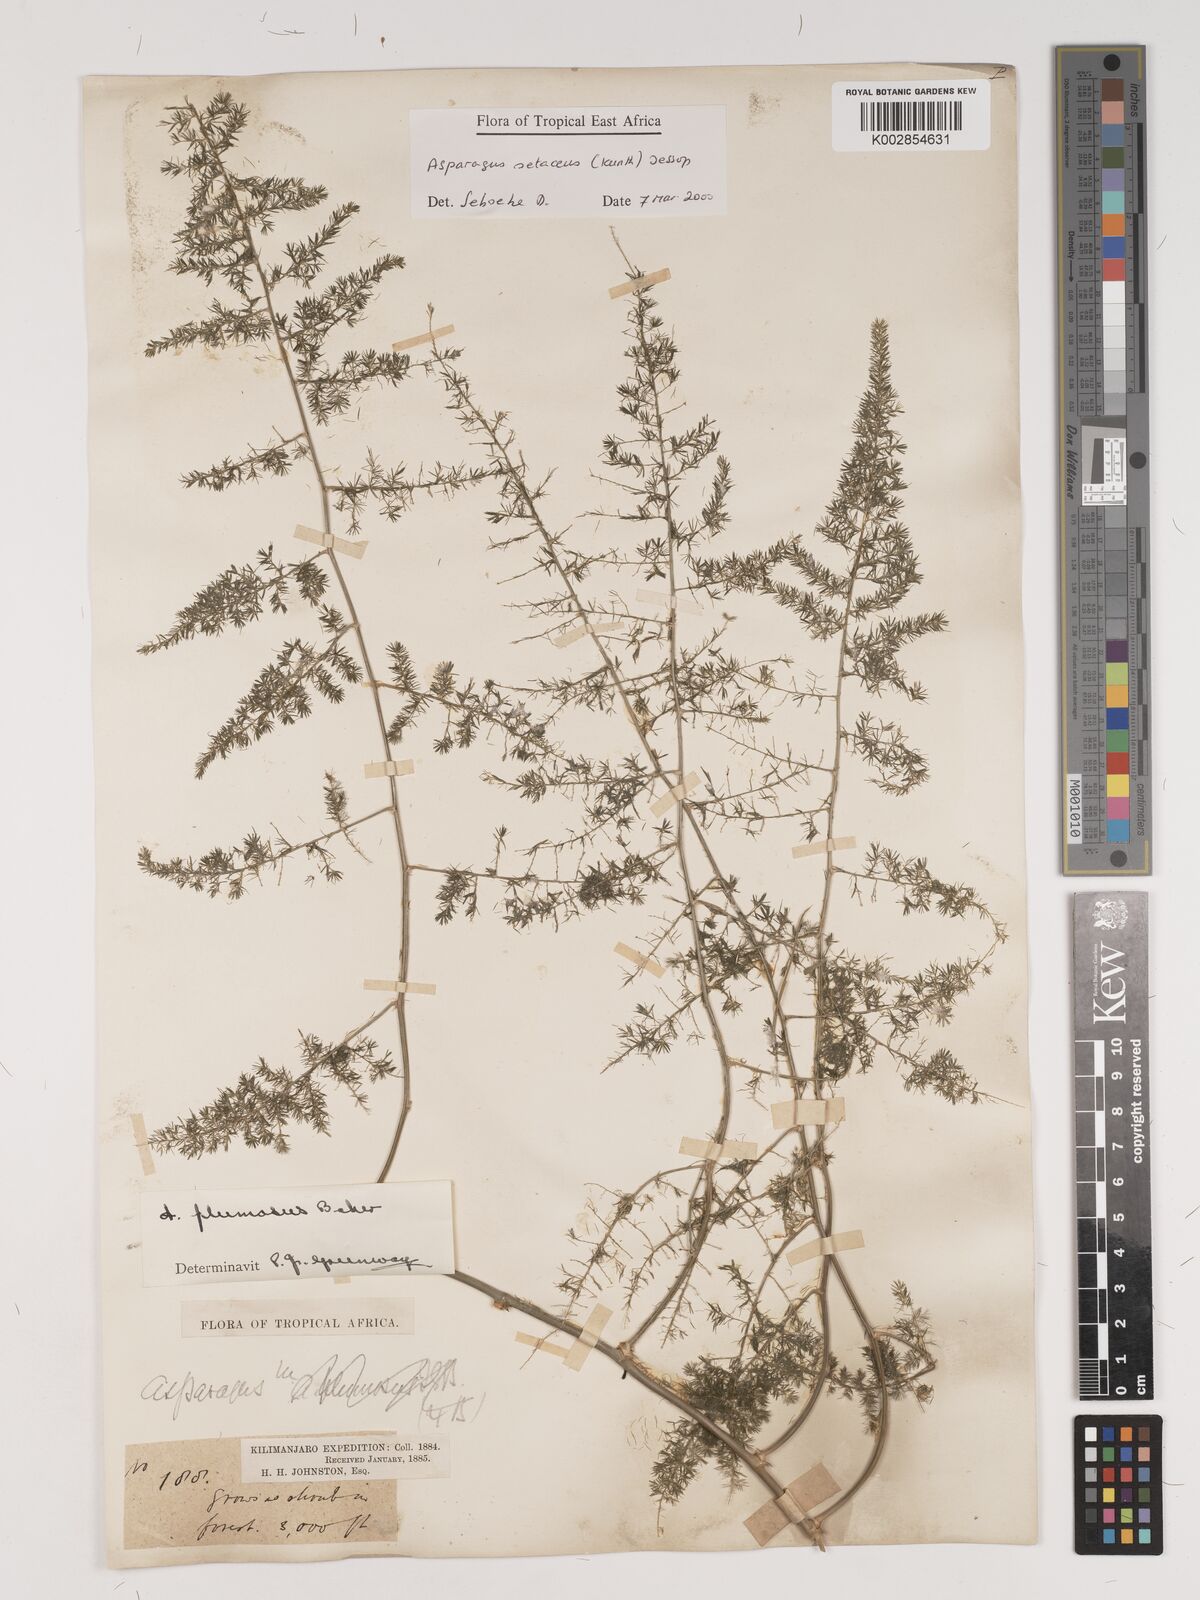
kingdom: Plantae
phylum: Tracheophyta
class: Liliopsida
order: Asparagales
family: Asparagaceae
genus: Asparagus
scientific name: Asparagus setaceus
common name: Common asparagus fern
